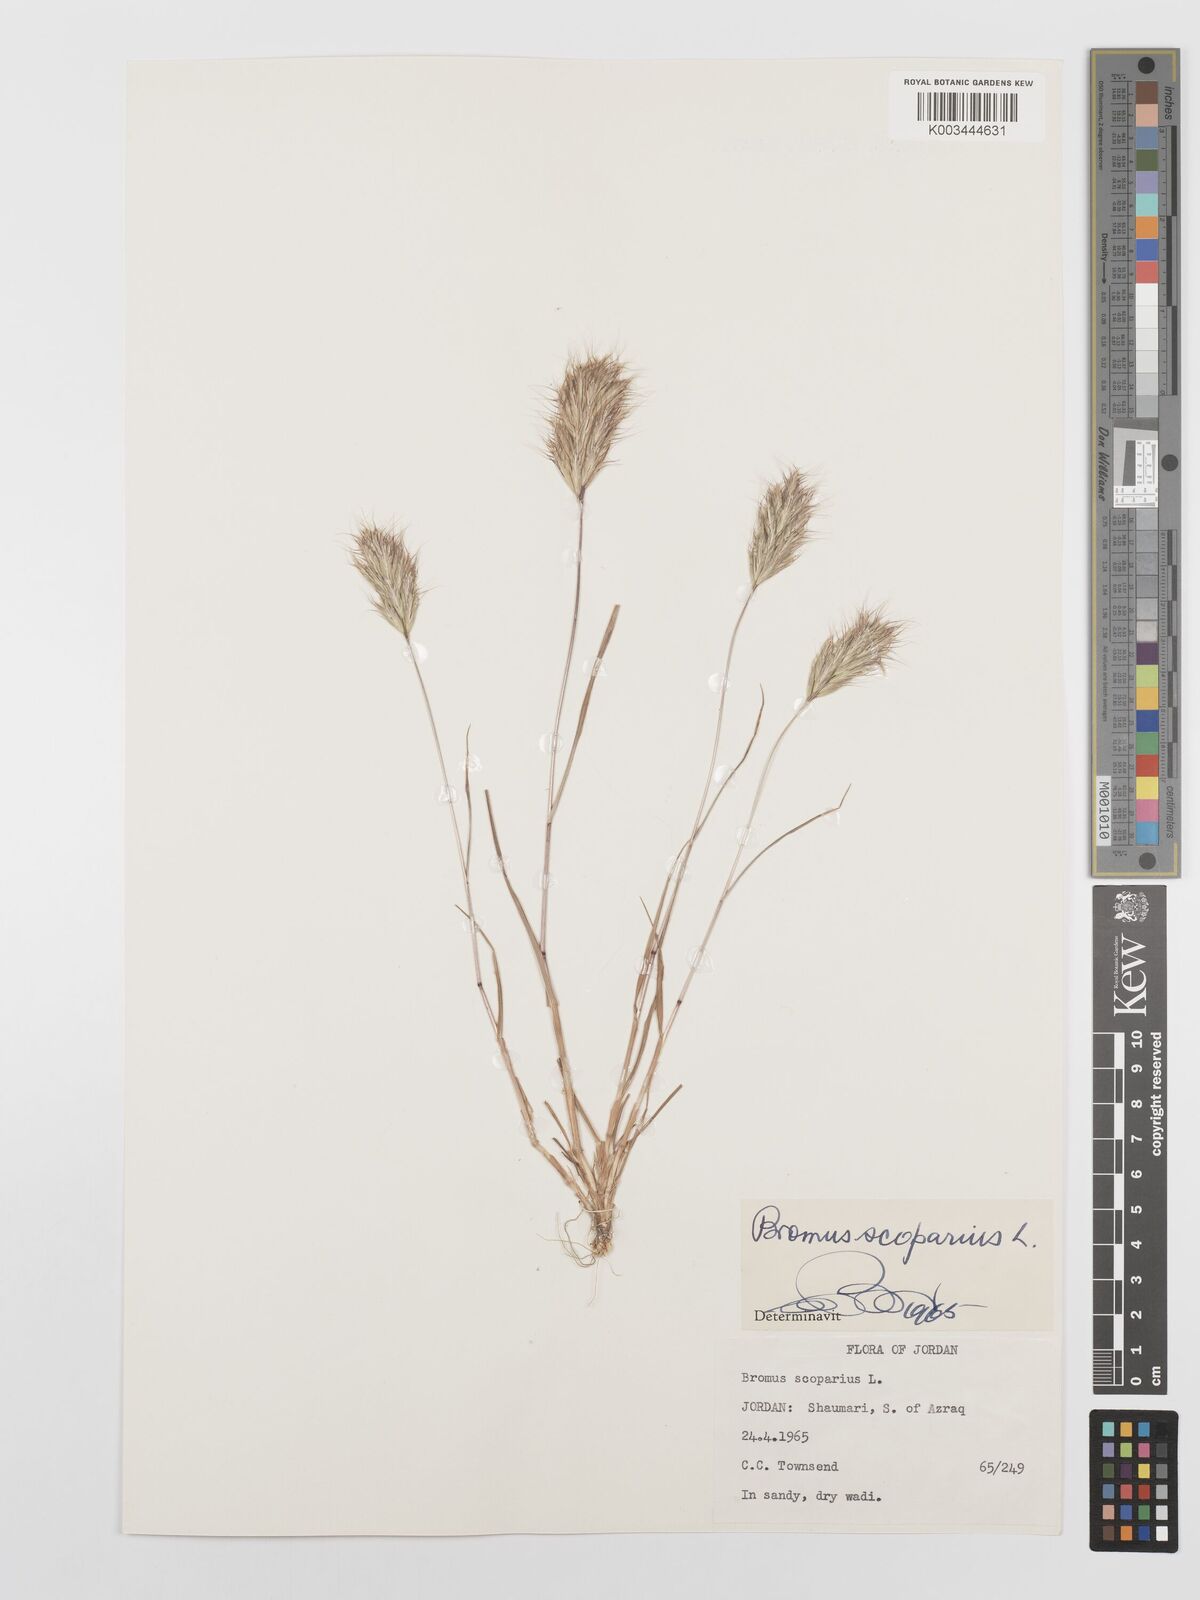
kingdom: Plantae
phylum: Tracheophyta
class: Liliopsida
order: Poales
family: Poaceae
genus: Bromus
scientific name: Bromus scoparius
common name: Broom brome
